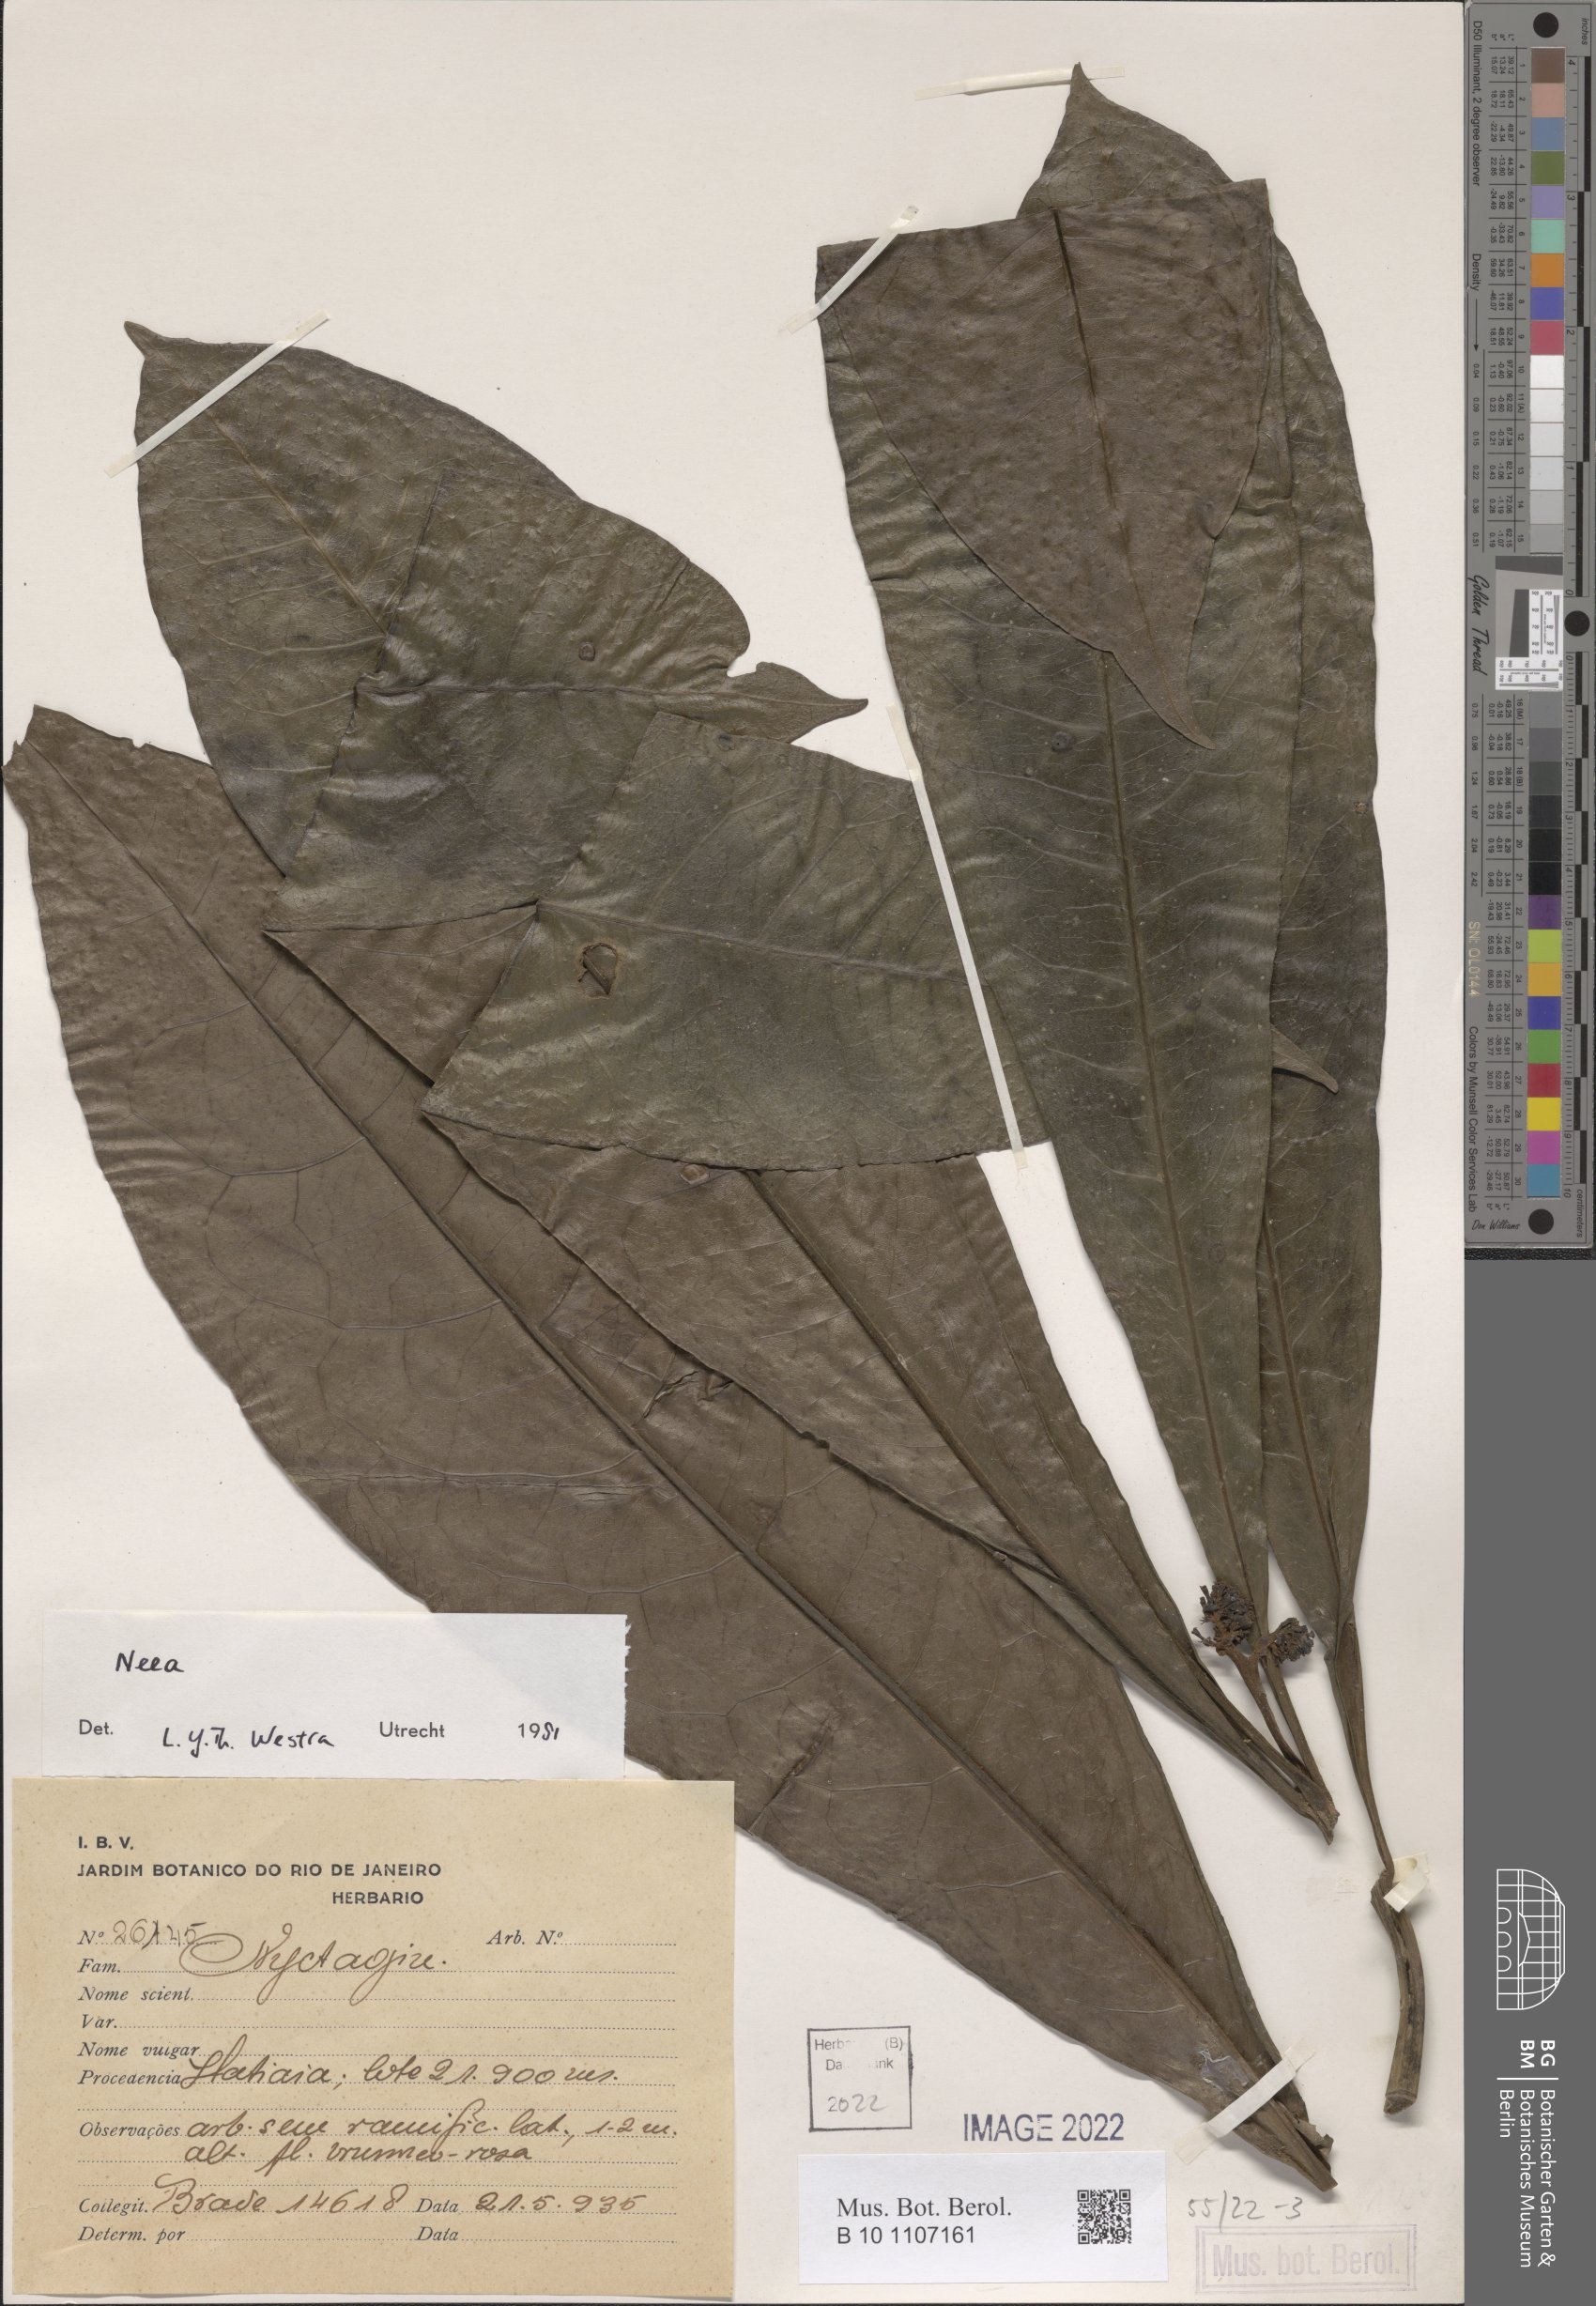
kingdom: Plantae
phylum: Tracheophyta
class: Magnoliopsida
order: Caryophyllales
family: Nyctaginaceae
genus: Neea
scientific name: Neea
